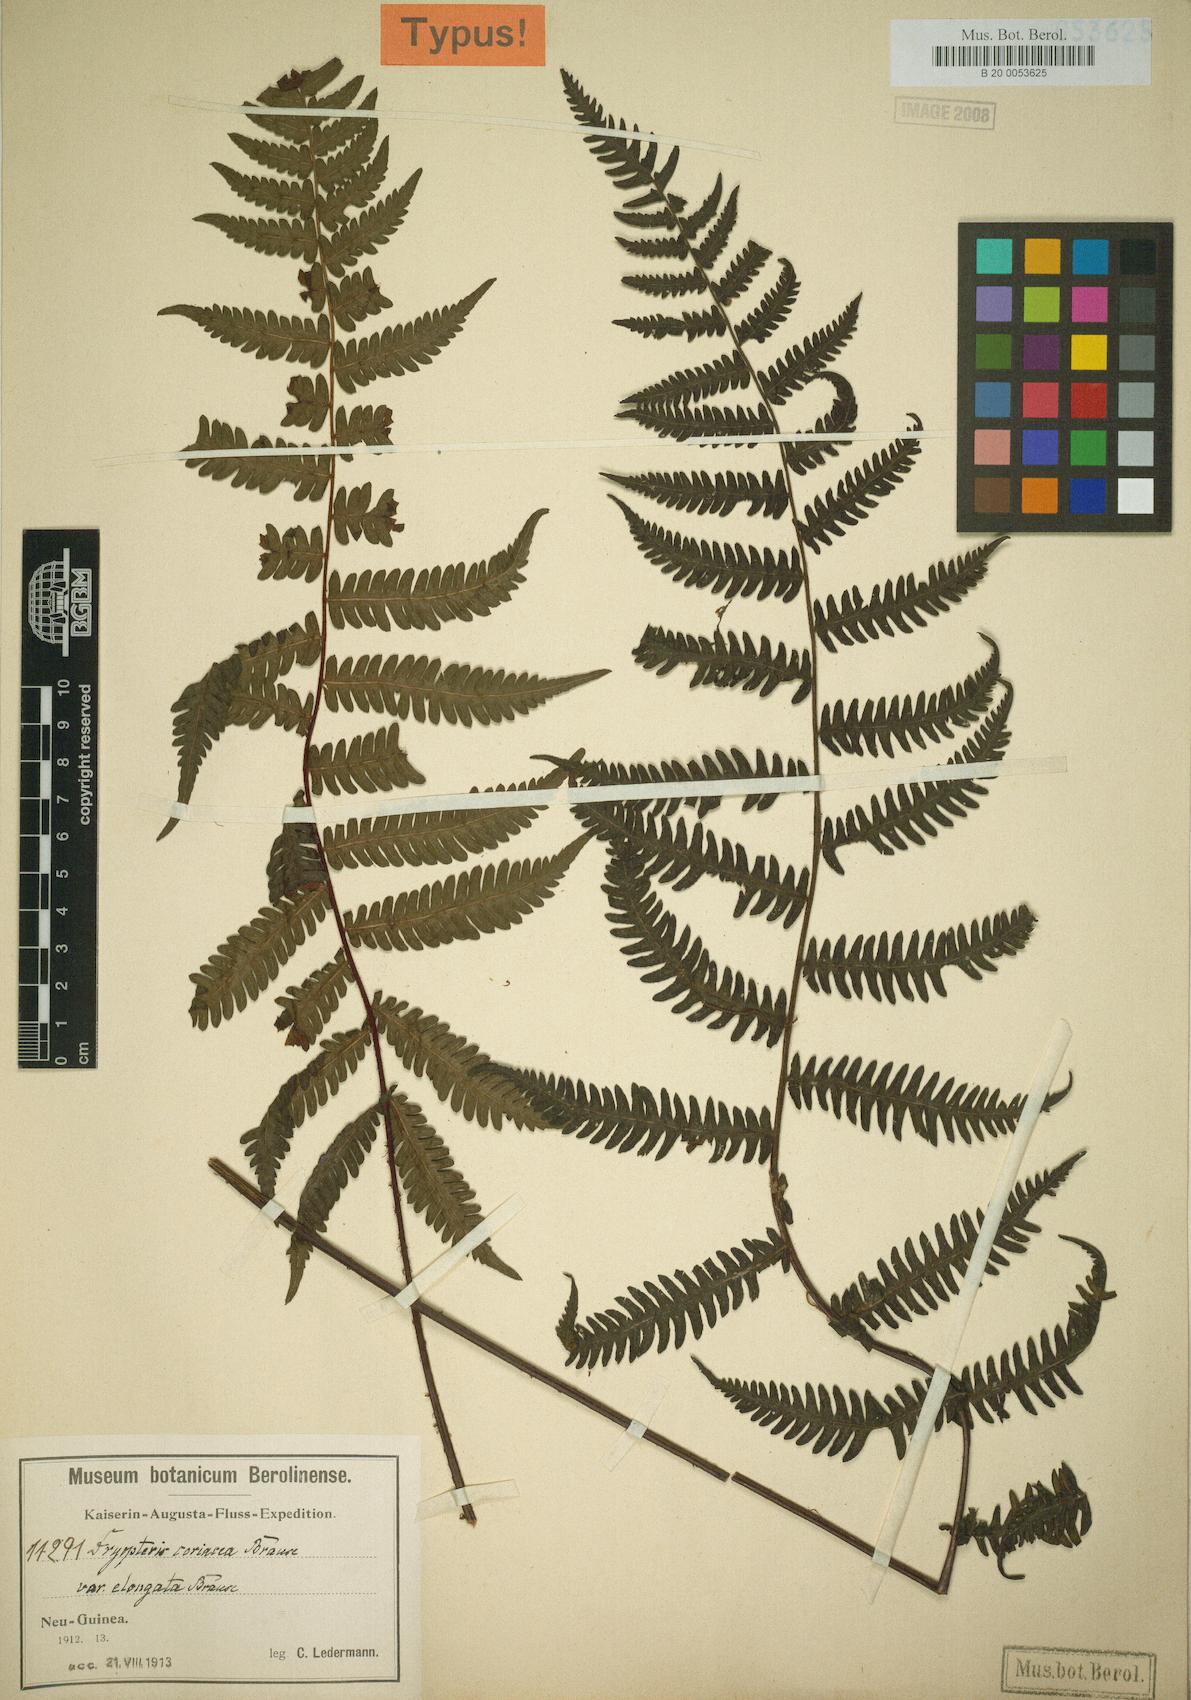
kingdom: Plantae
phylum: Tracheophyta
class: Polypodiopsida
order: Polypodiales
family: Thelypteridaceae
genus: Coryphopteris
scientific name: Coryphopteris coriacea
